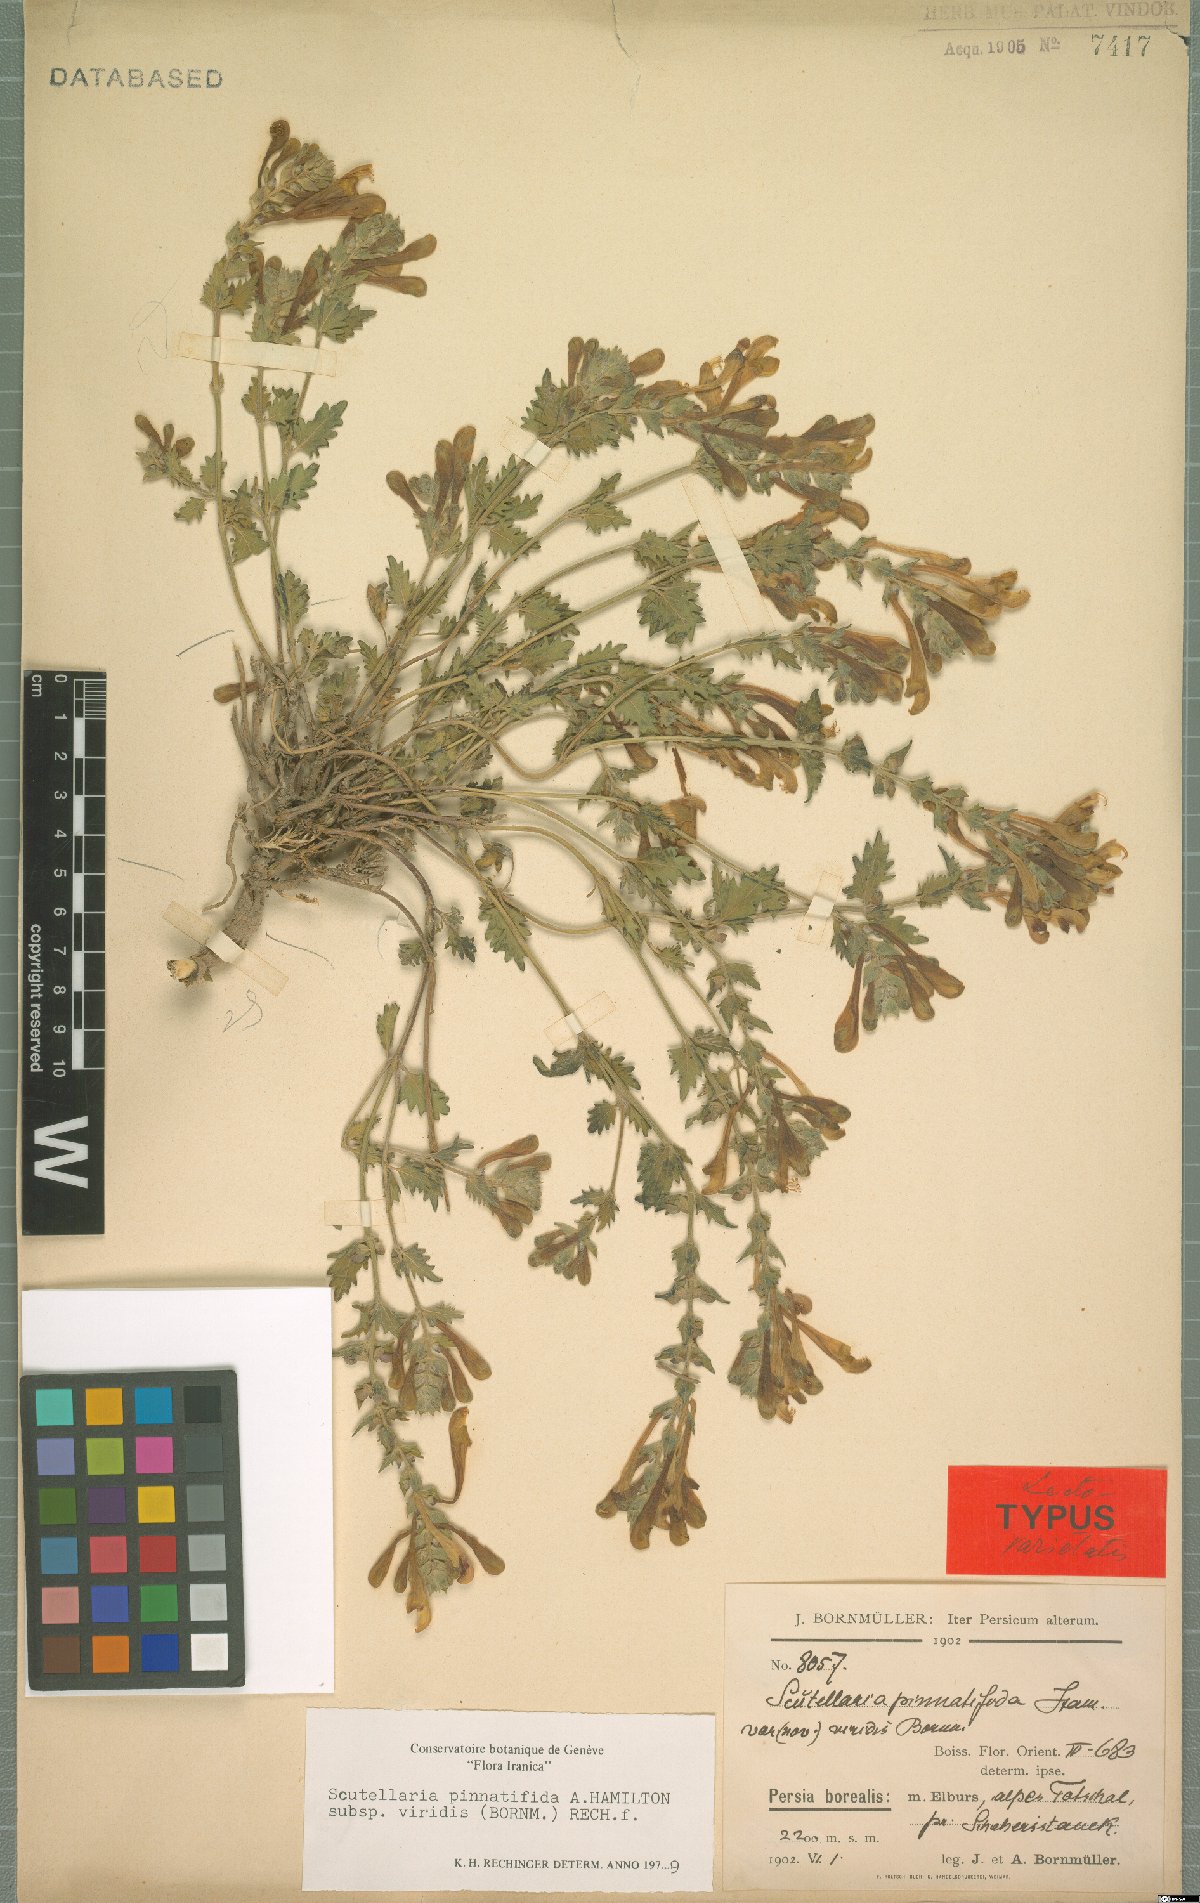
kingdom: Plantae
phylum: Tracheophyta
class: Magnoliopsida
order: Lamiales
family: Lamiaceae
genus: Scutellaria
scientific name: Scutellaria pinnatifida
